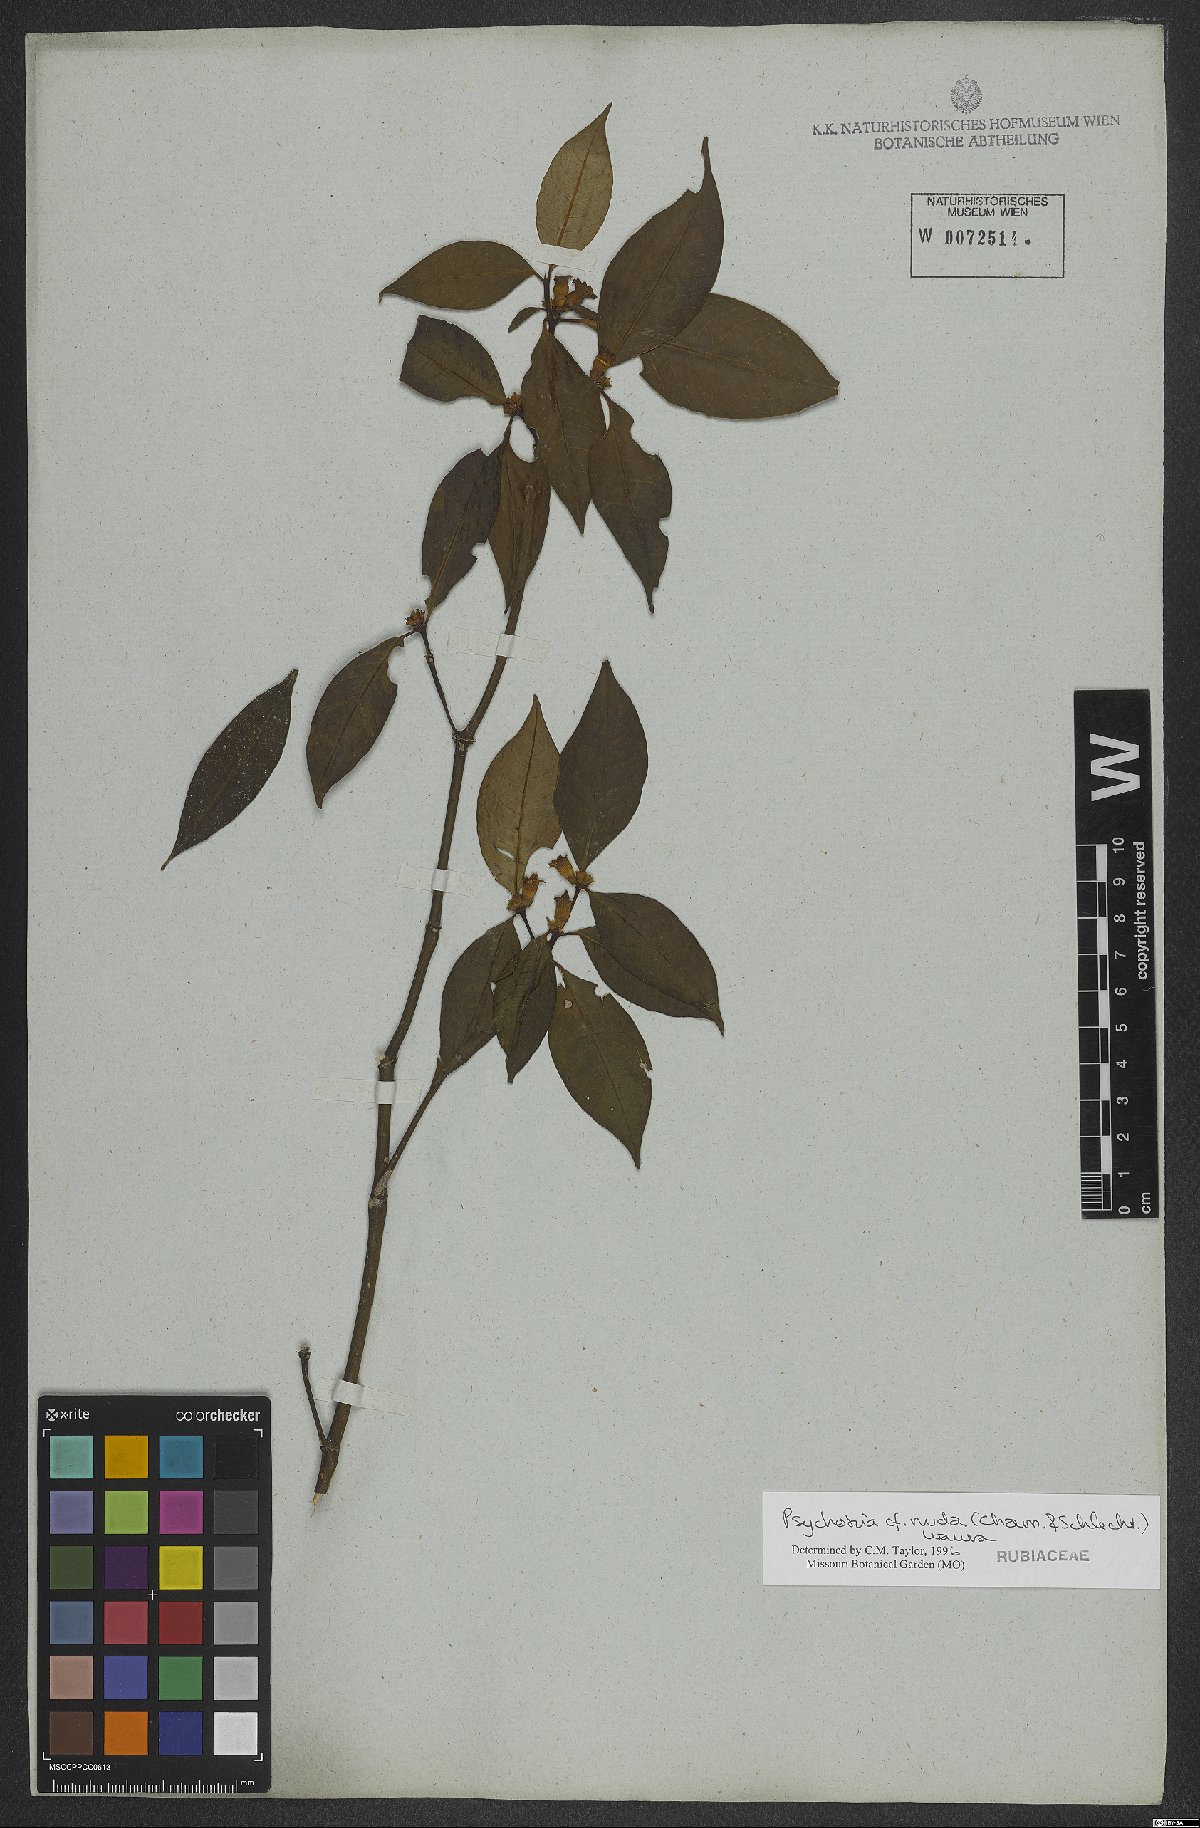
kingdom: Plantae
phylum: Tracheophyta
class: Magnoliopsida
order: Gentianales
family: Rubiaceae
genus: Psychotria
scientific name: Psychotria nuda
